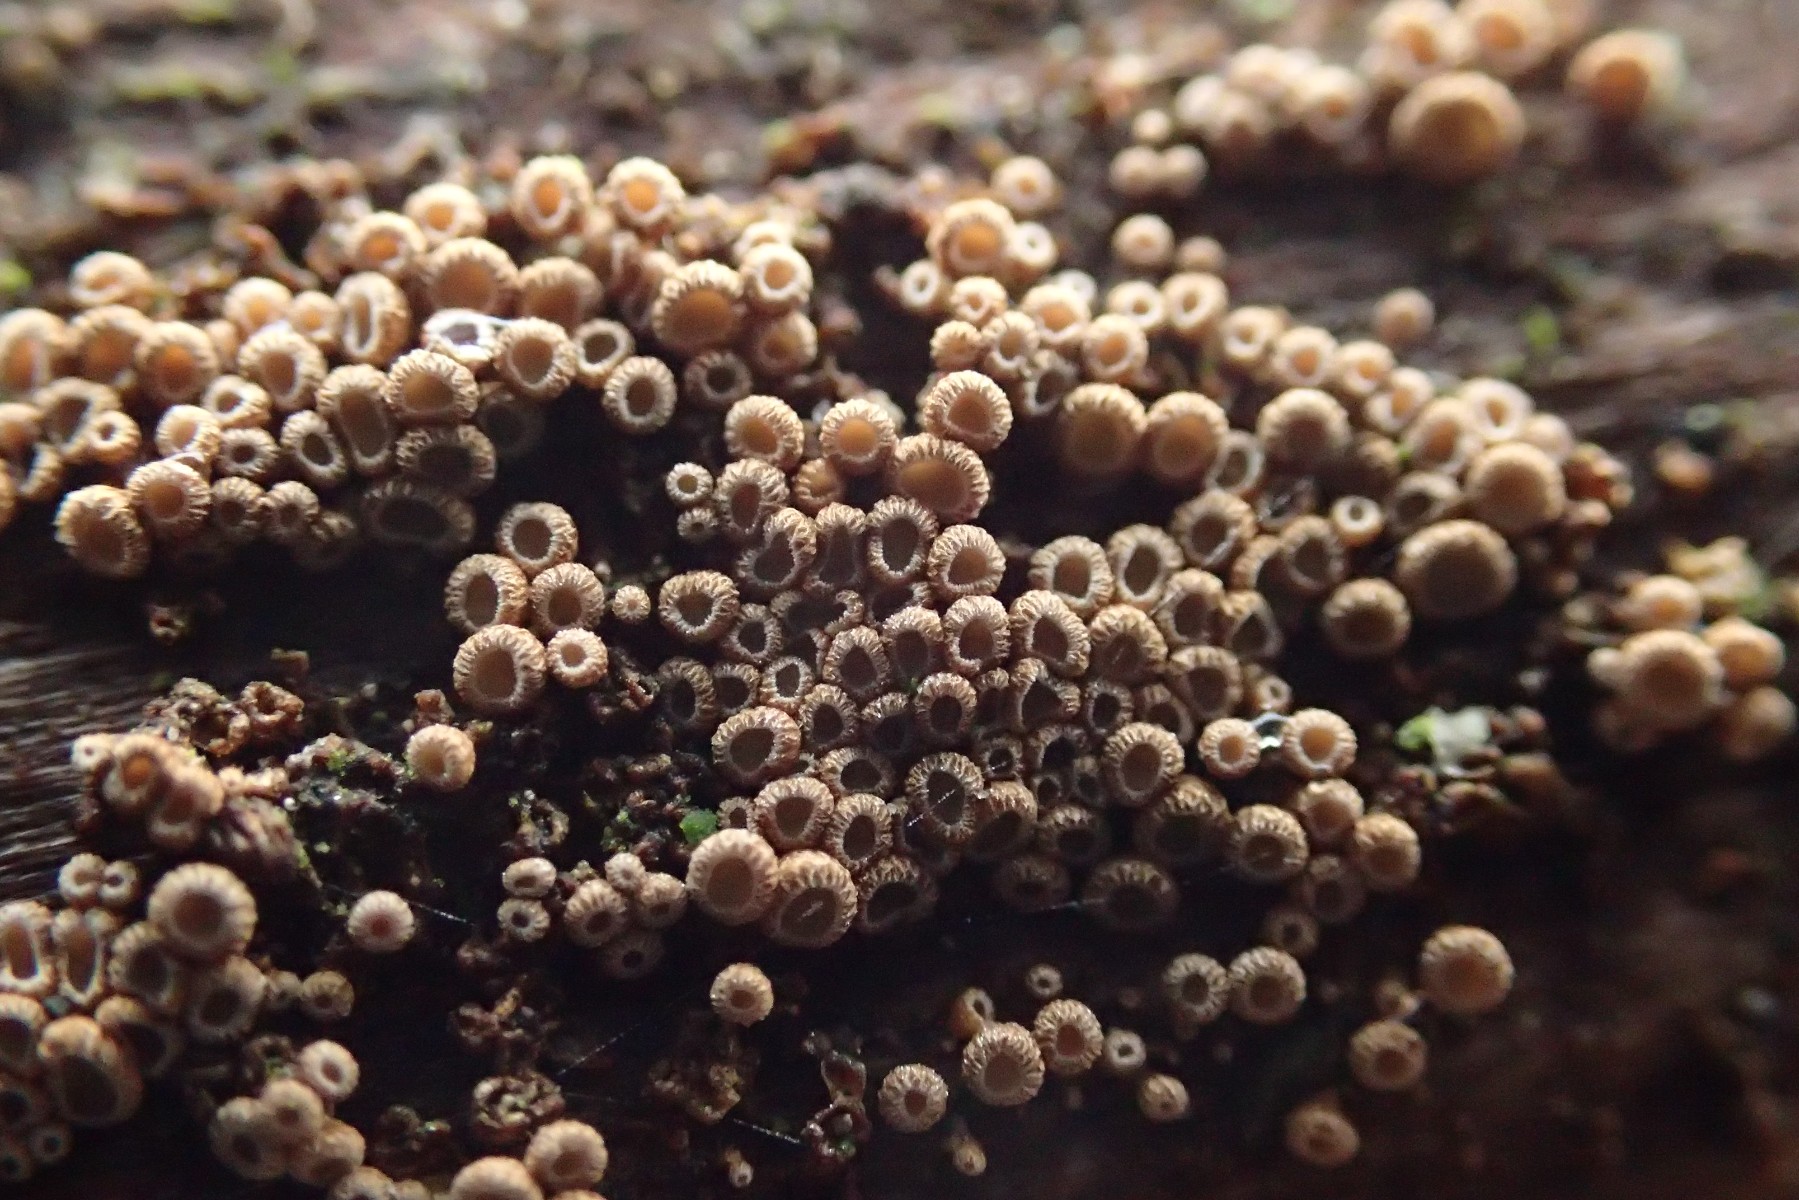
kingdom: Fungi
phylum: Basidiomycota
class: Agaricomycetes
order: Agaricales
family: Niaceae
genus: Merismodes
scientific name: Merismodes anomala
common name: almindelig læderskål
